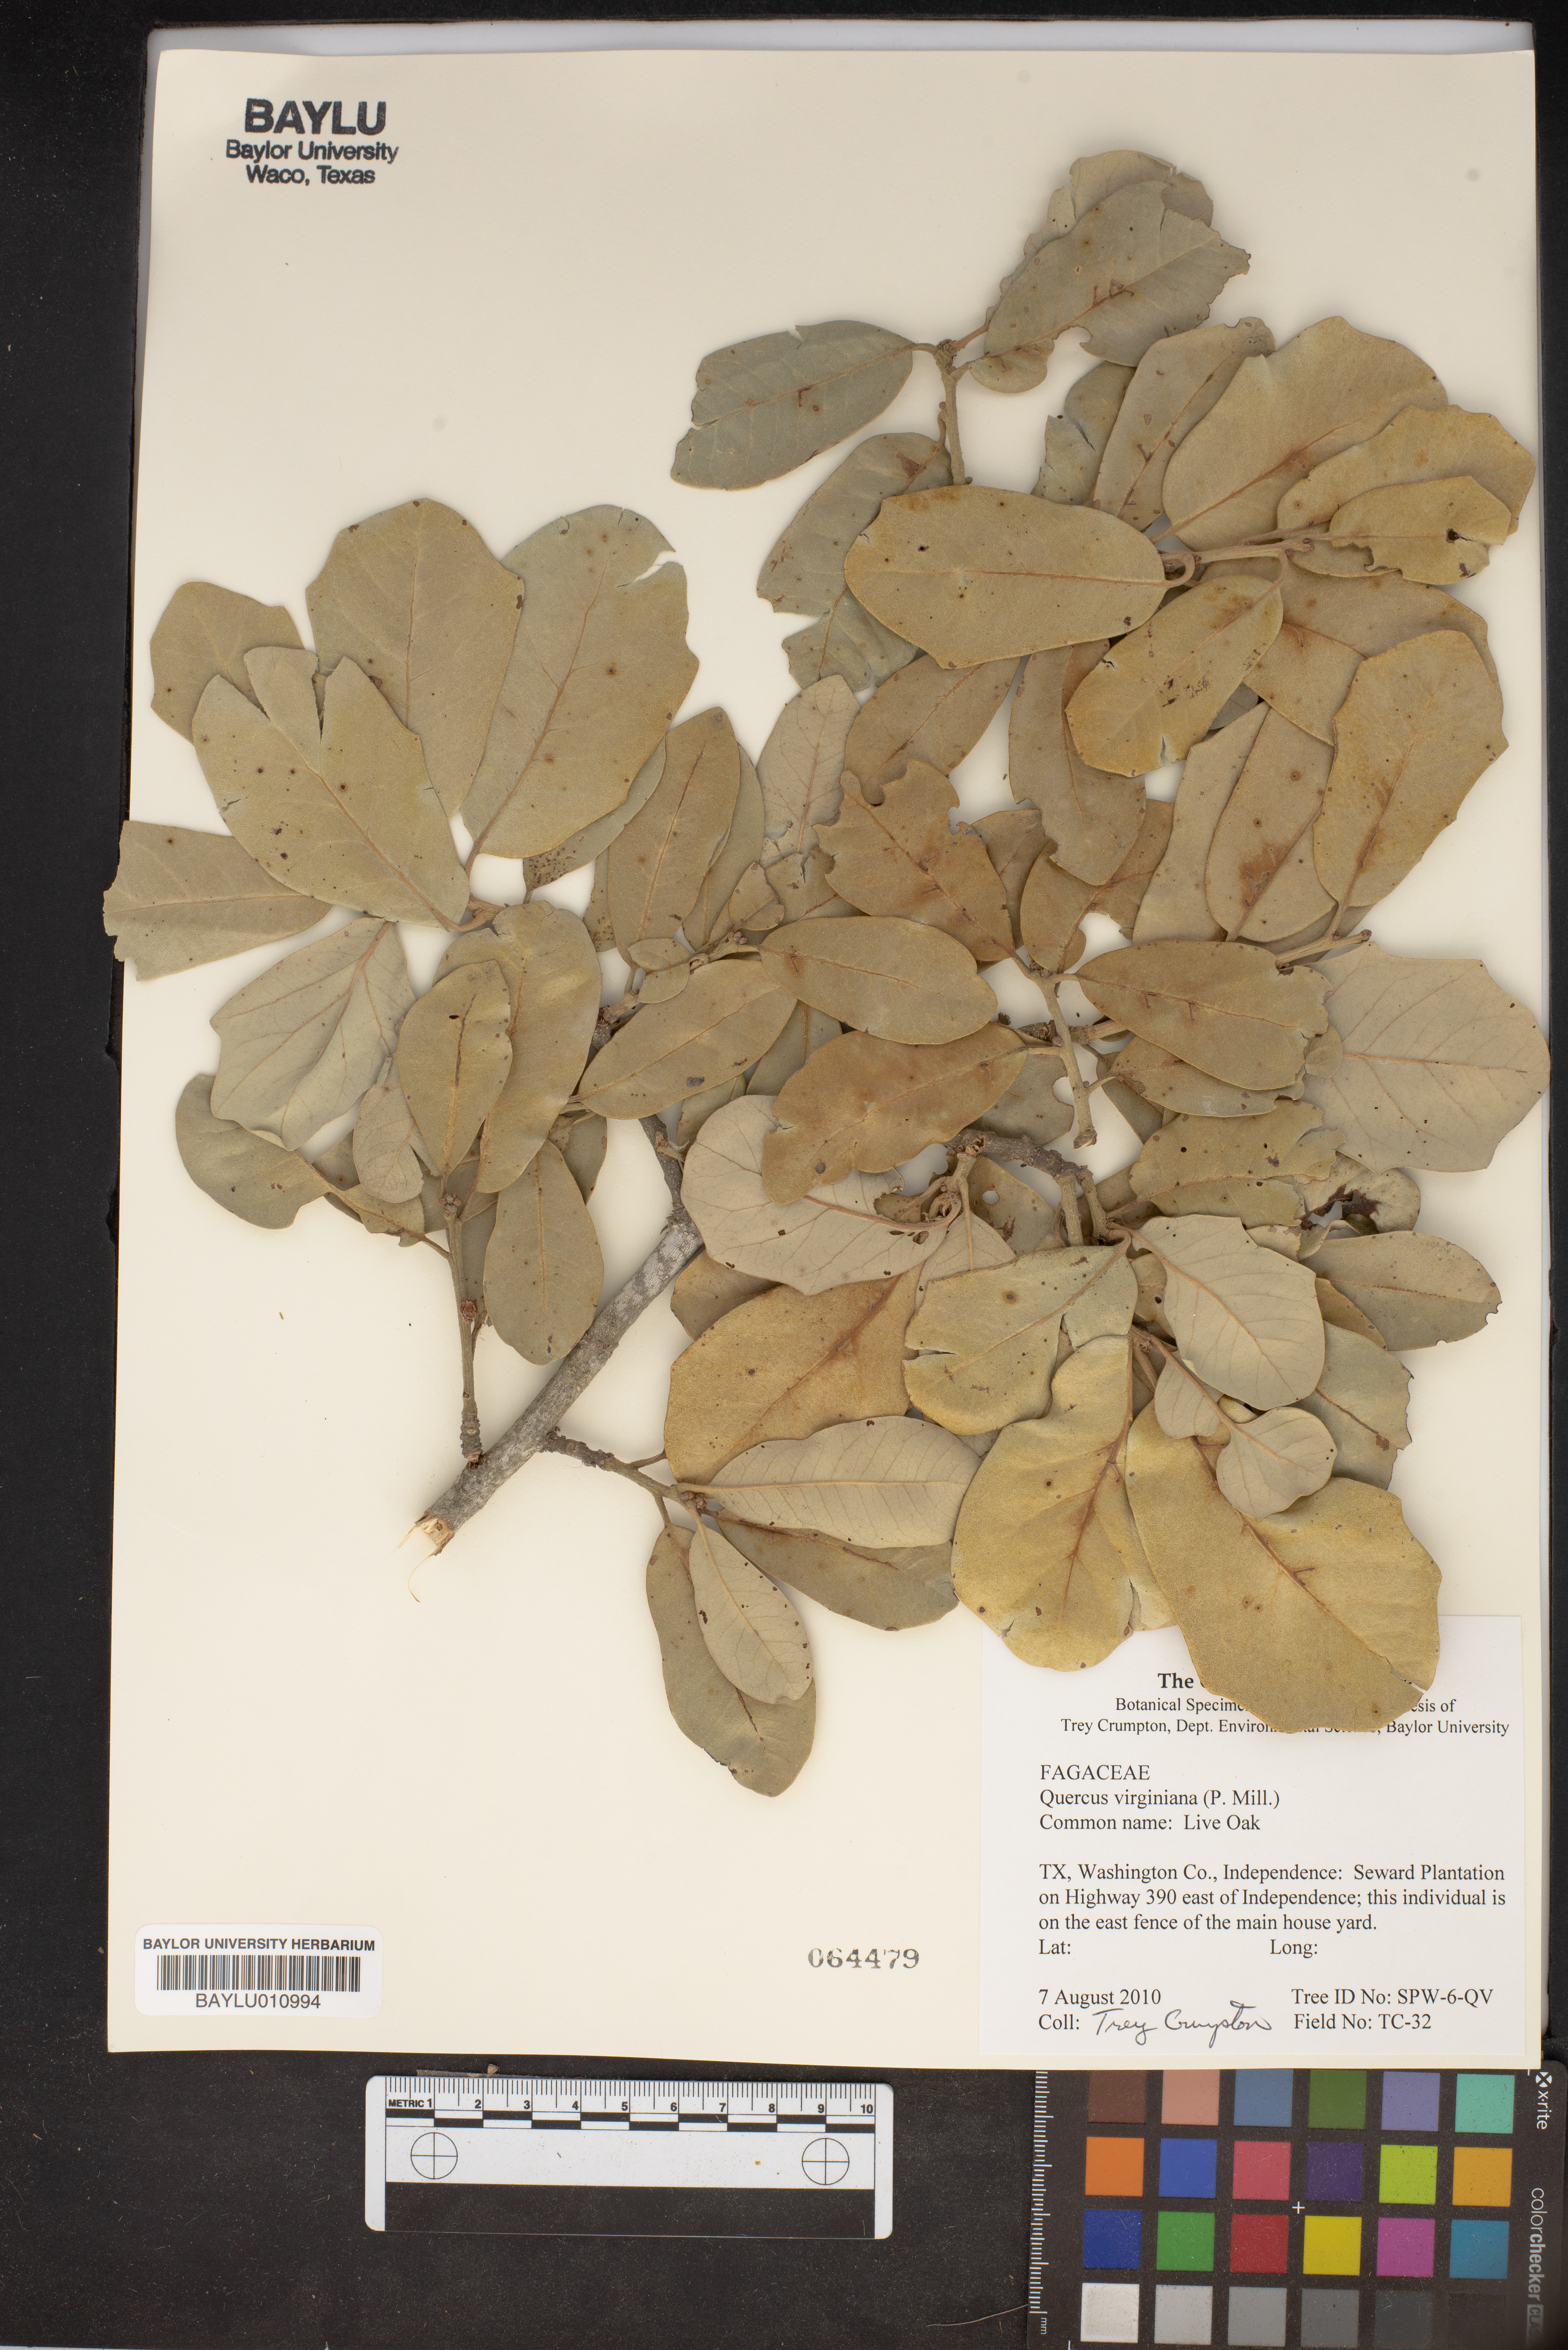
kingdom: Plantae
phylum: Tracheophyta
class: Magnoliopsida
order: Fagales
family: Fagaceae
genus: Quercus
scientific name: Quercus virginiana
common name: Southern live oak
